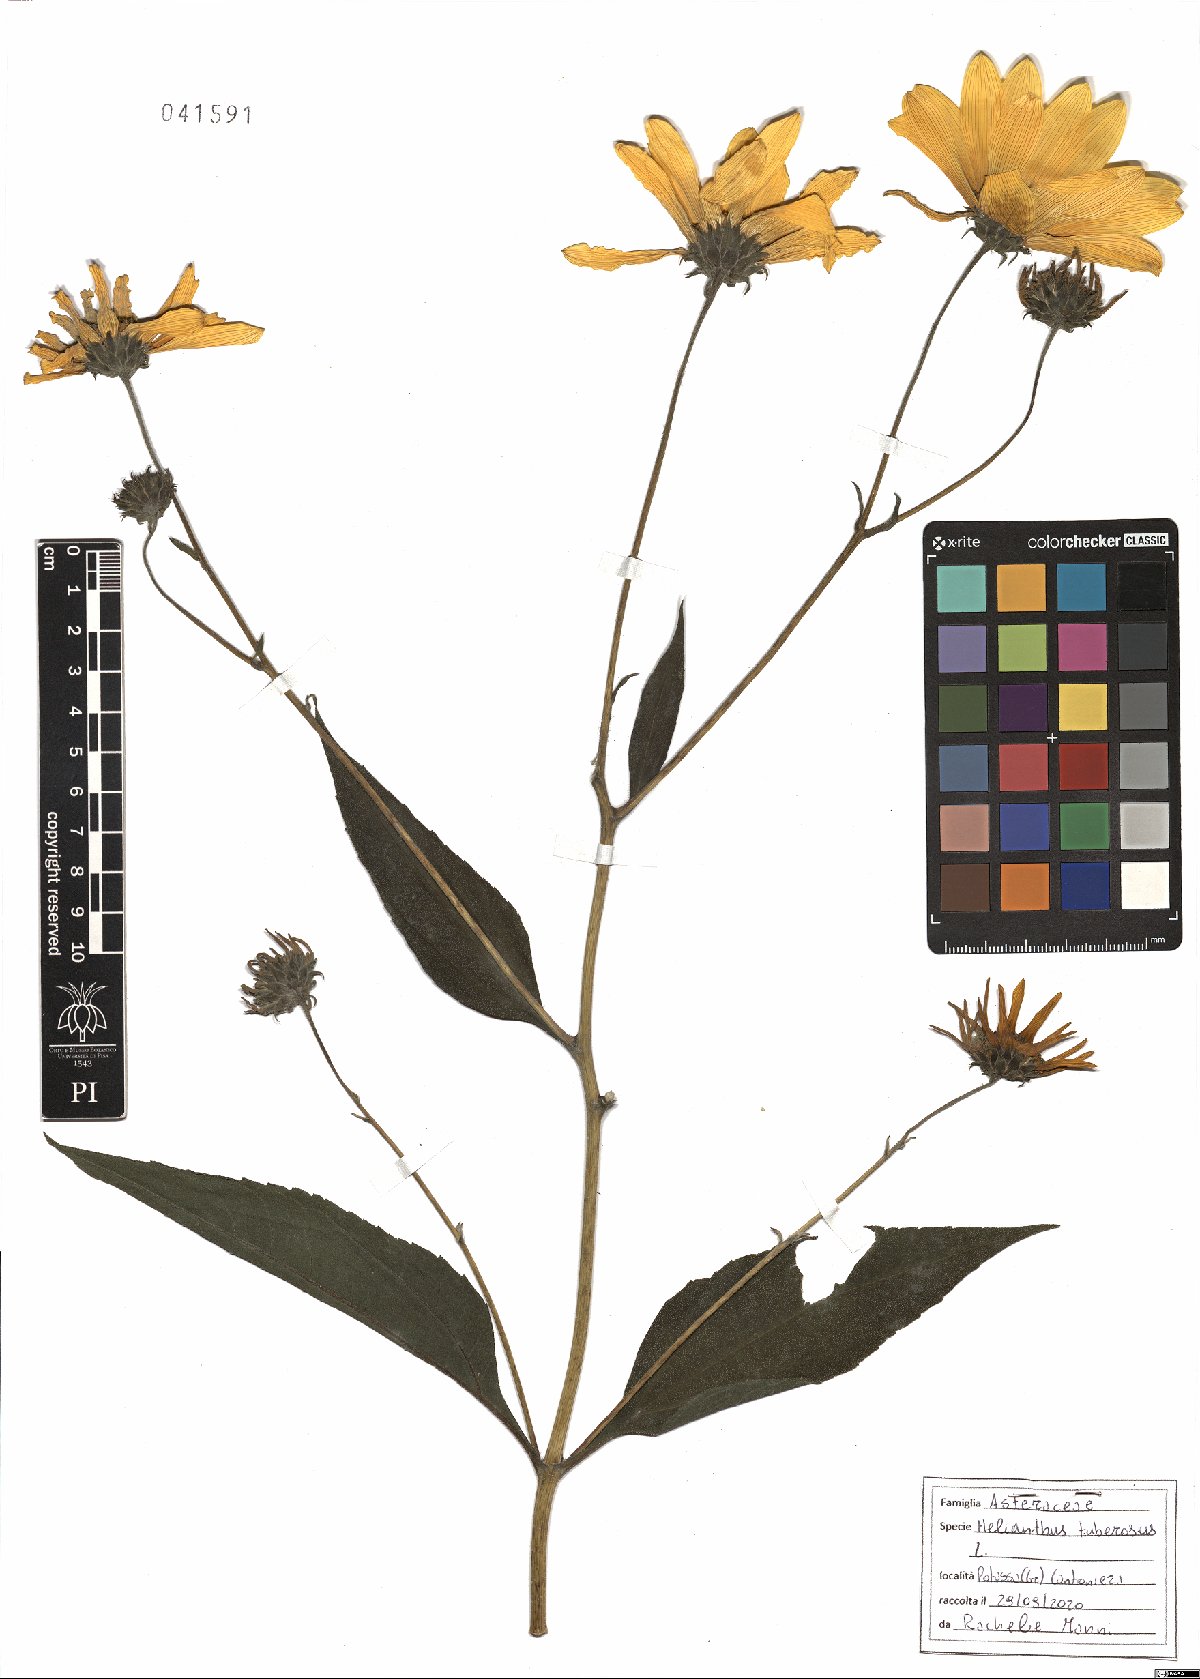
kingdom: Plantae
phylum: Tracheophyta
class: Magnoliopsida
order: Asterales
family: Asteraceae
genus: Helianthus
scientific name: Helianthus tuberosus
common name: Jerusalem artichoke
